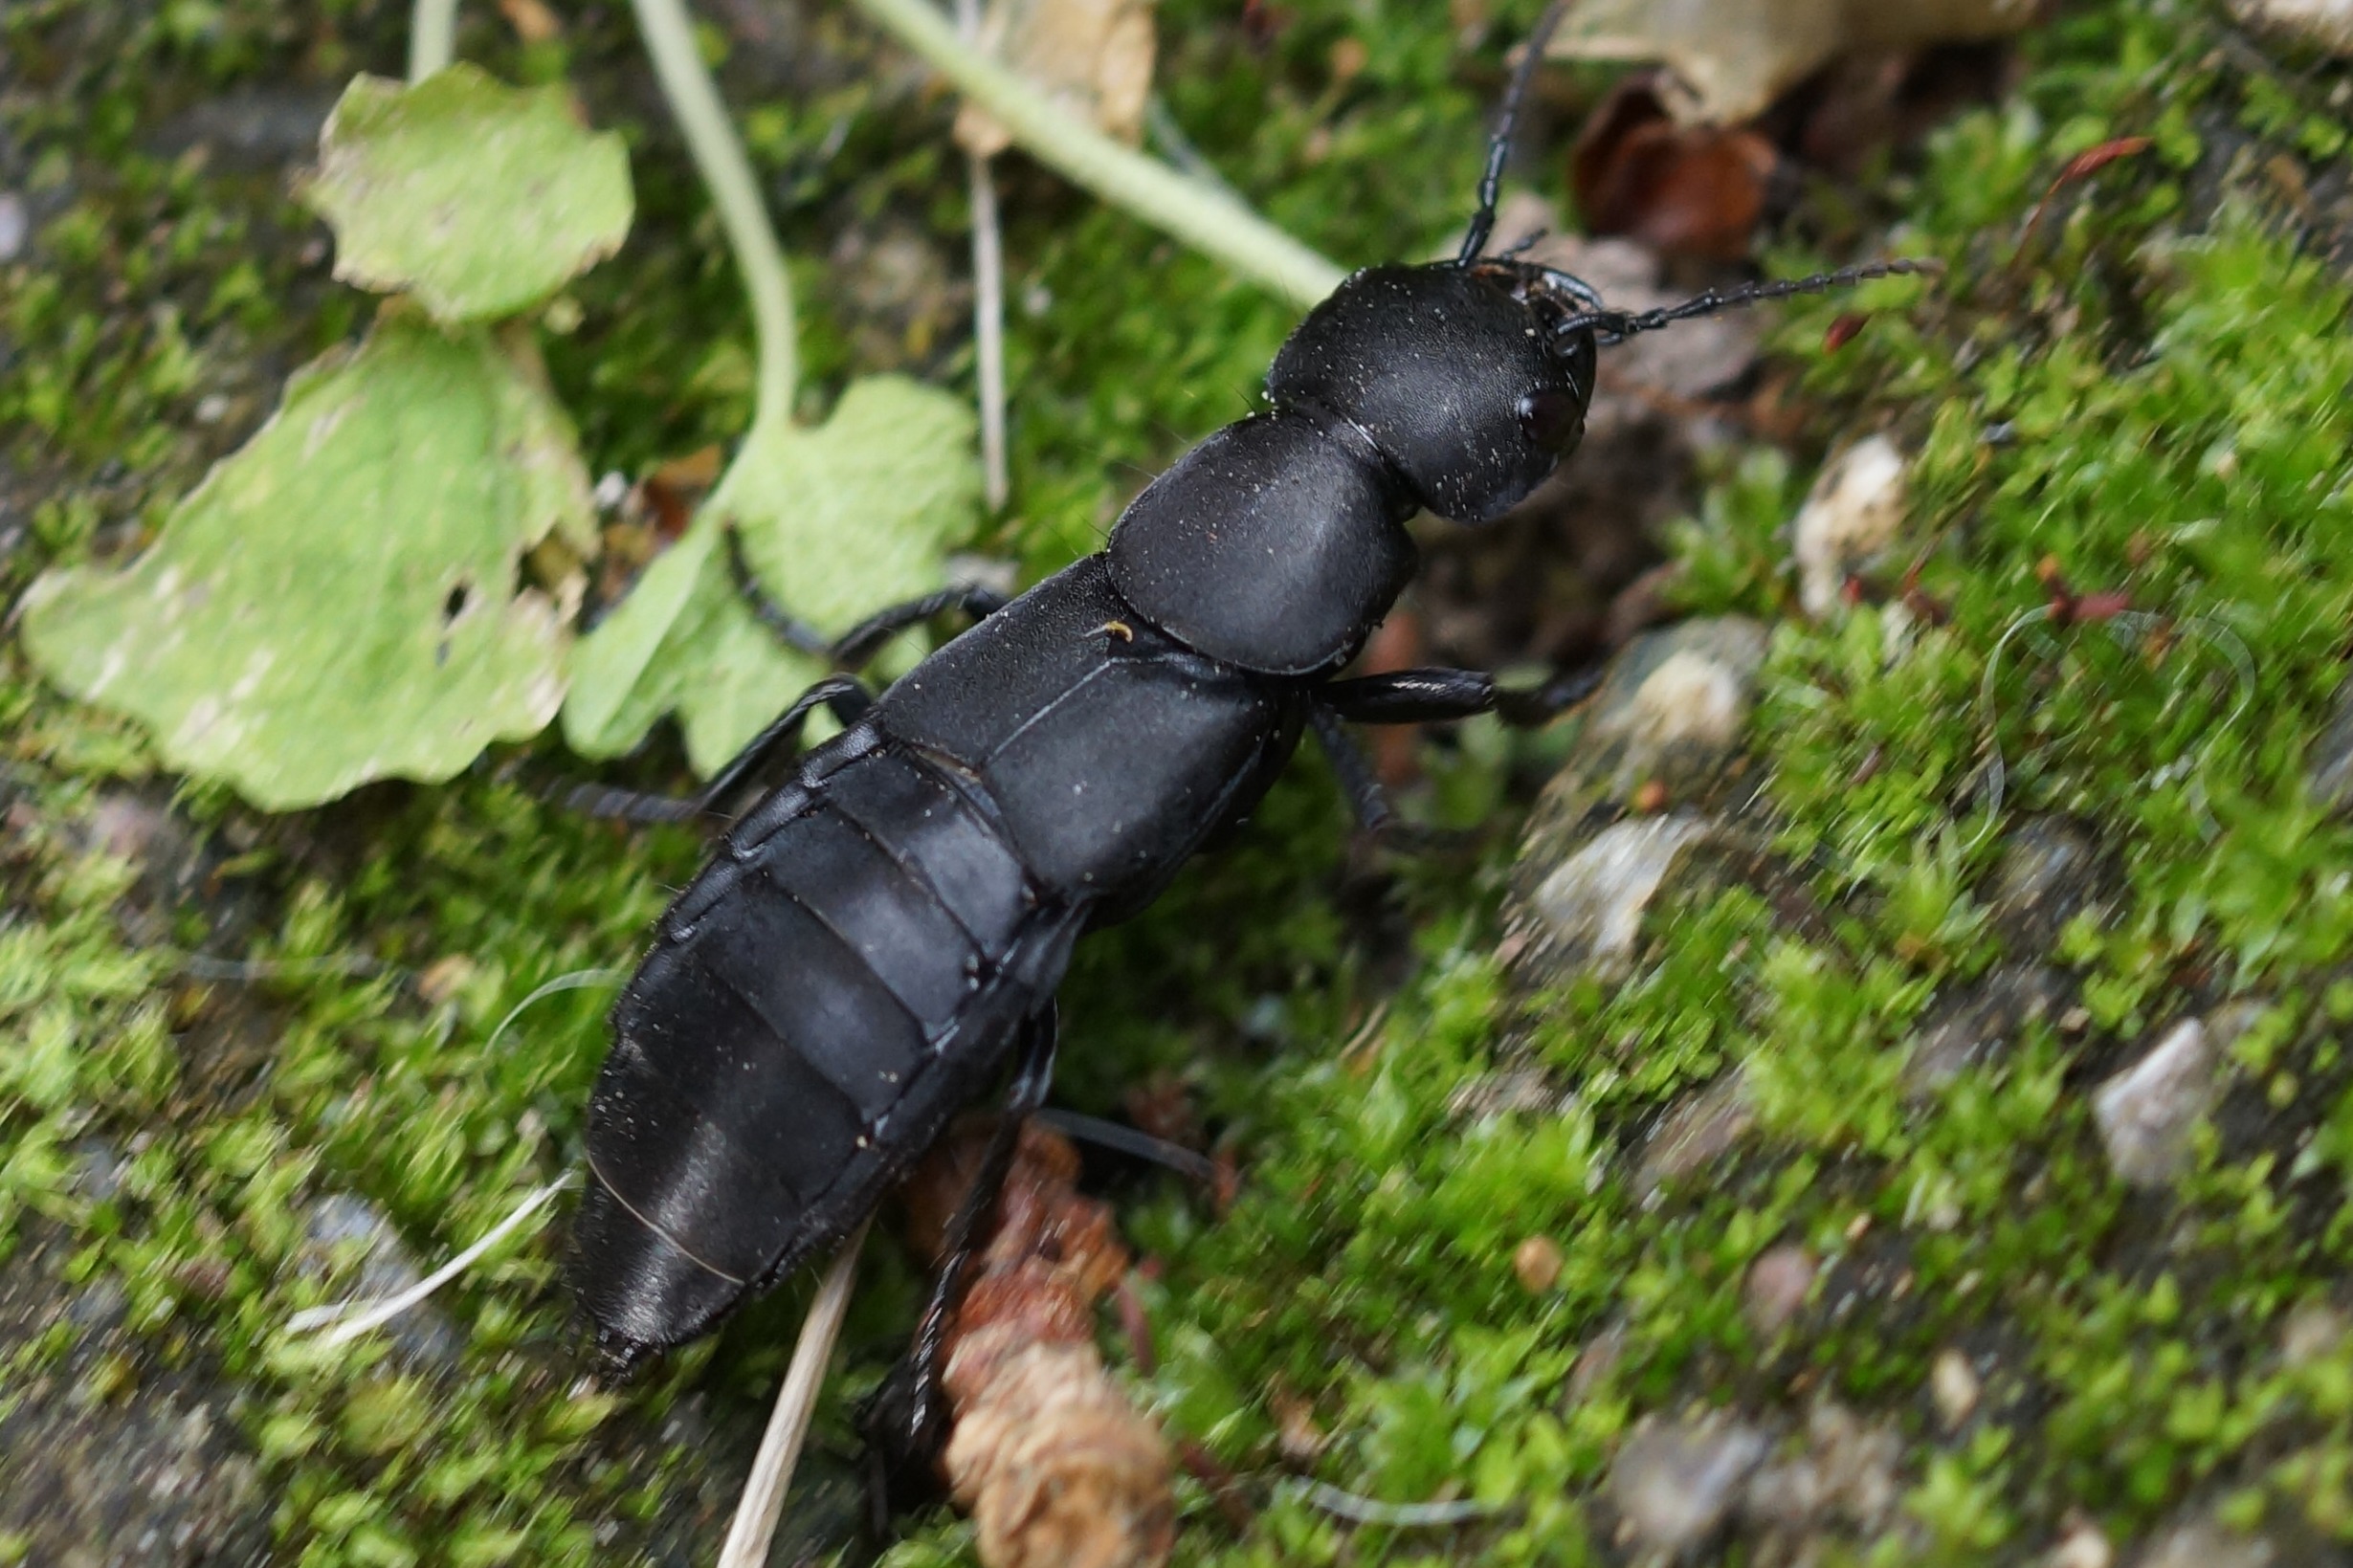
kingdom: Animalia
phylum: Arthropoda
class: Insecta
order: Coleoptera
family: Staphylinidae
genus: Ocypus
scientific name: Ocypus olens
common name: Stor rovbille
